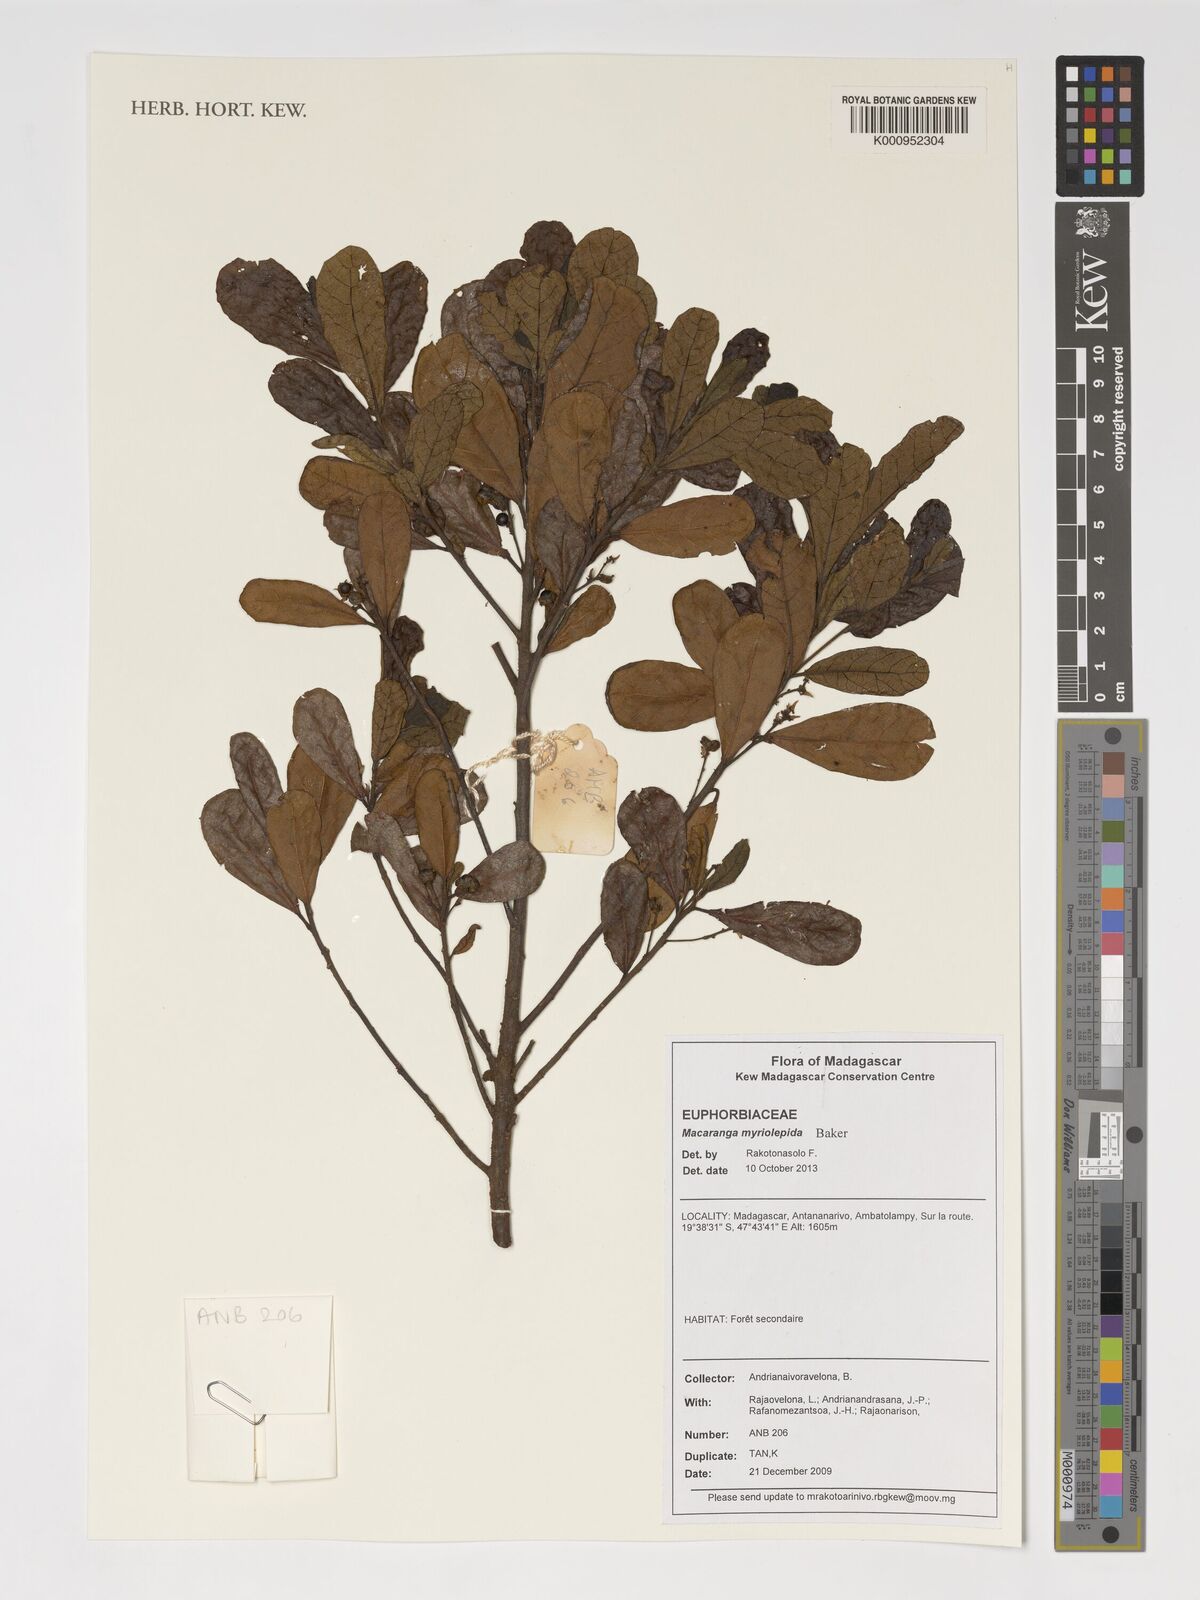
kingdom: Plantae
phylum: Tracheophyta
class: Magnoliopsida
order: Malpighiales
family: Euphorbiaceae
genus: Macaranga
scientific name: Macaranga myriolepida
